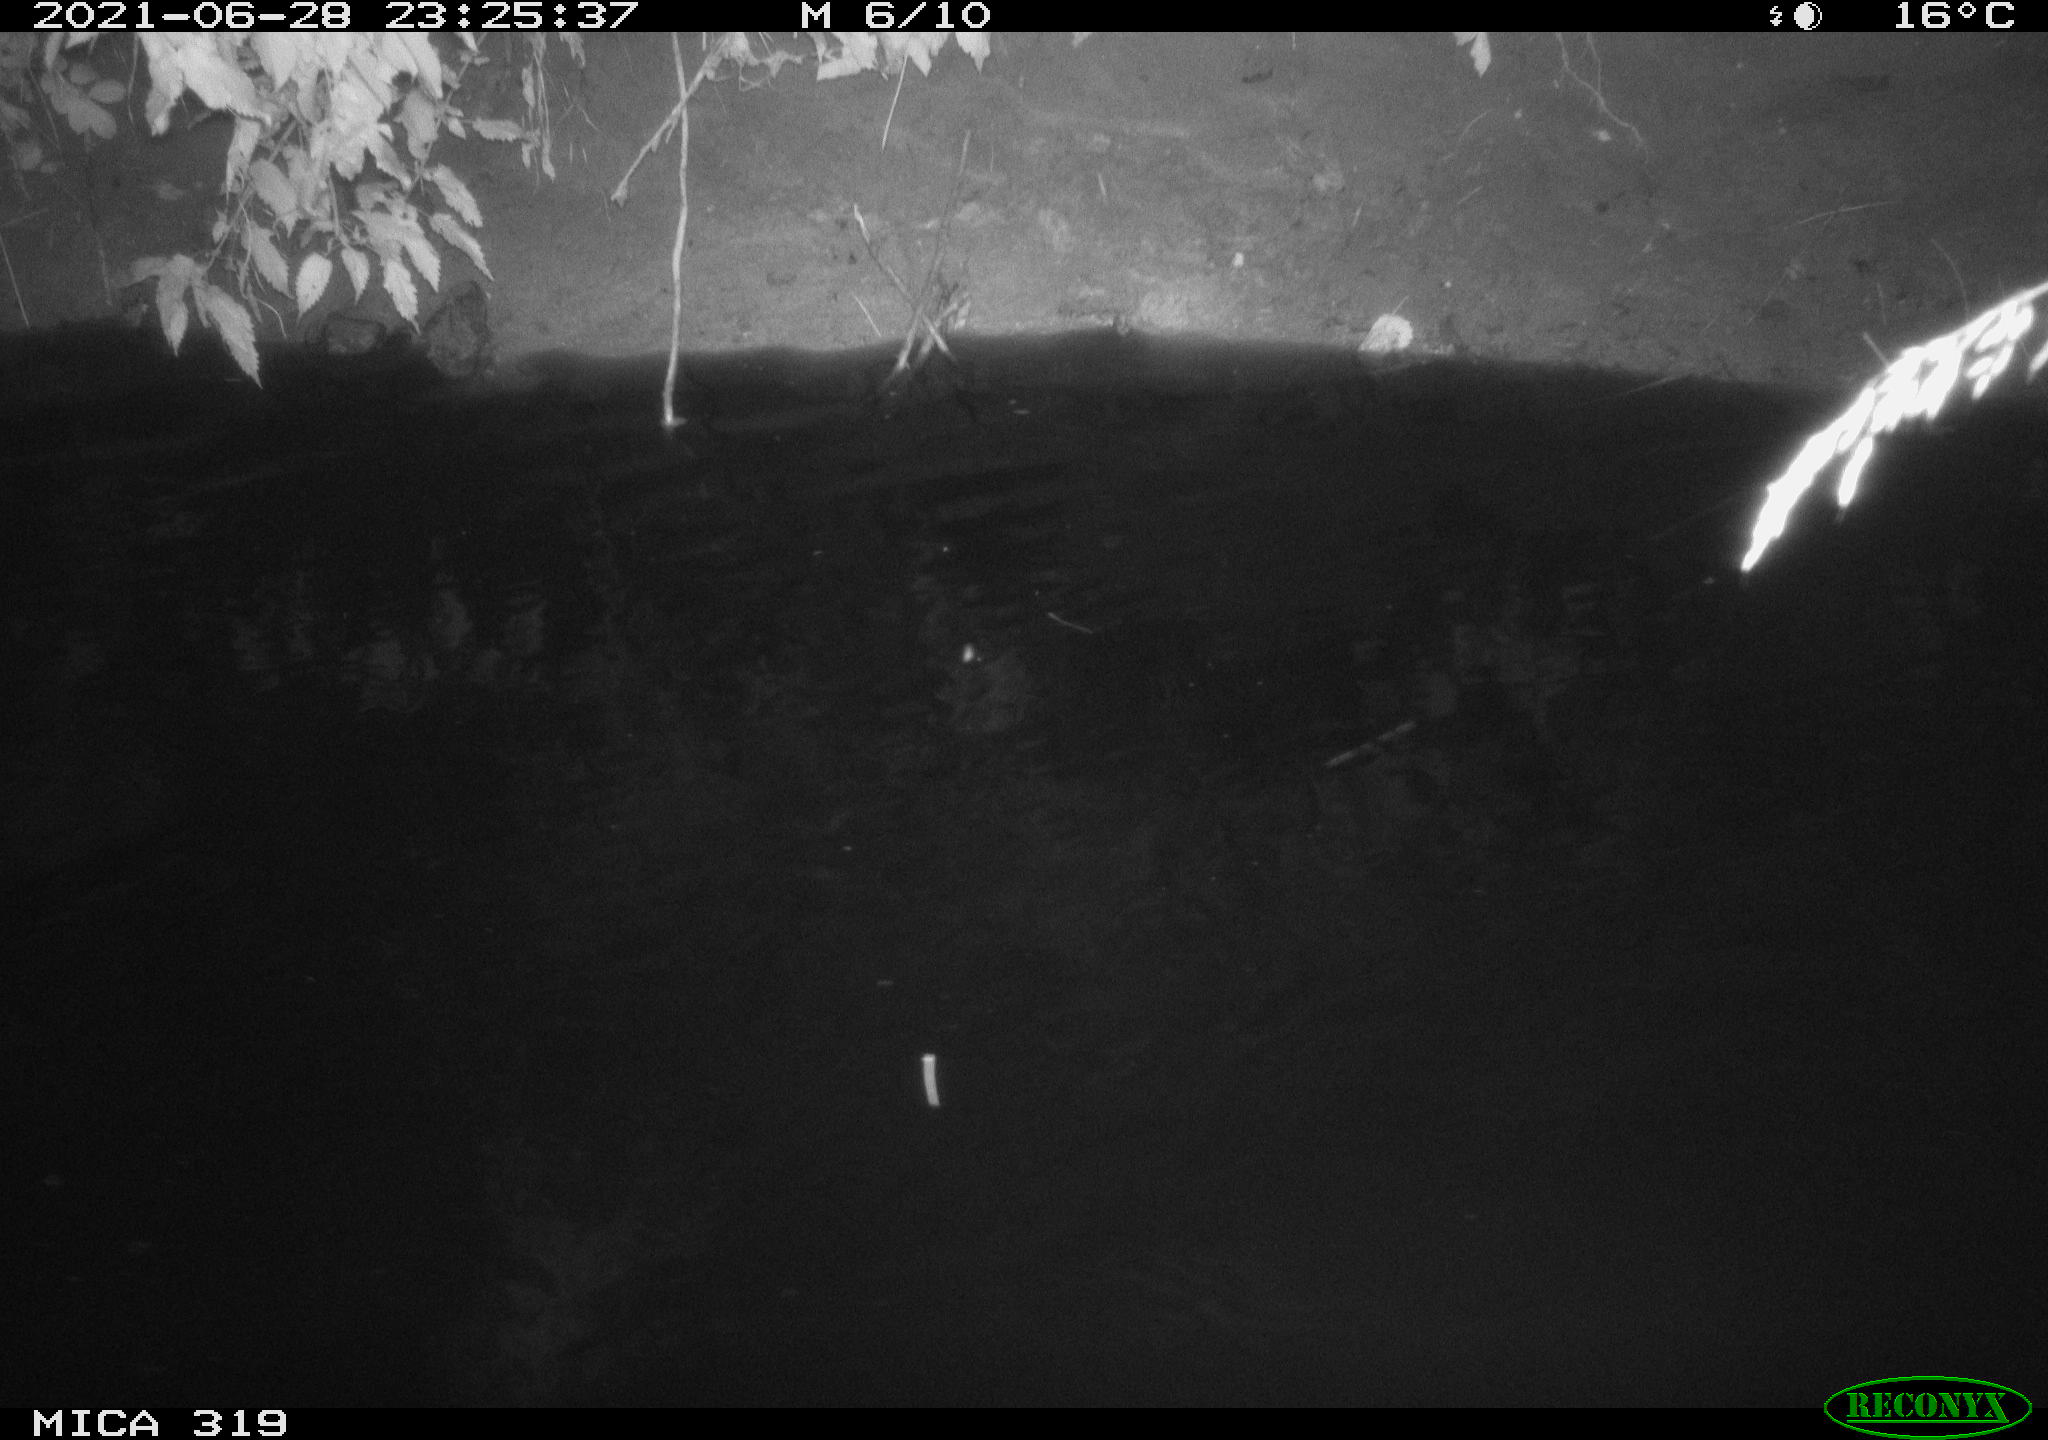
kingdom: Animalia
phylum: Chordata
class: Aves
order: Anseriformes
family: Anatidae
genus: Anas
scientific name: Anas platyrhynchos
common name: Mallard
